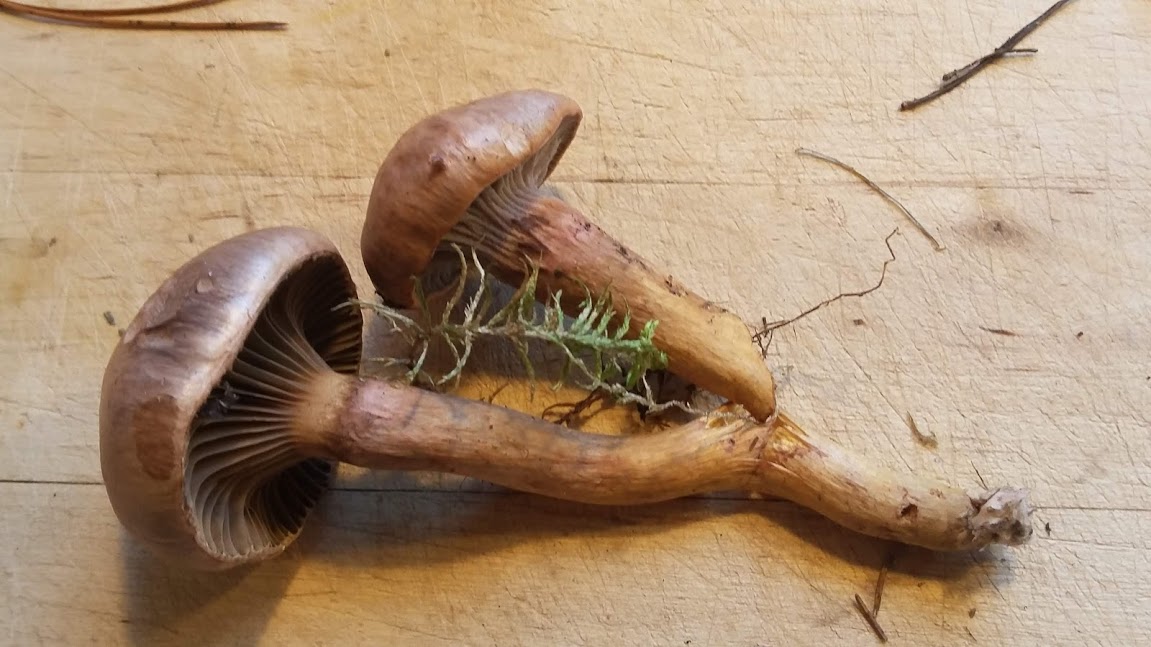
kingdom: Fungi
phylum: Basidiomycota
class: Agaricomycetes
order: Boletales
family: Gomphidiaceae
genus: Chroogomphus
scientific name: Chroogomphus rutilus
